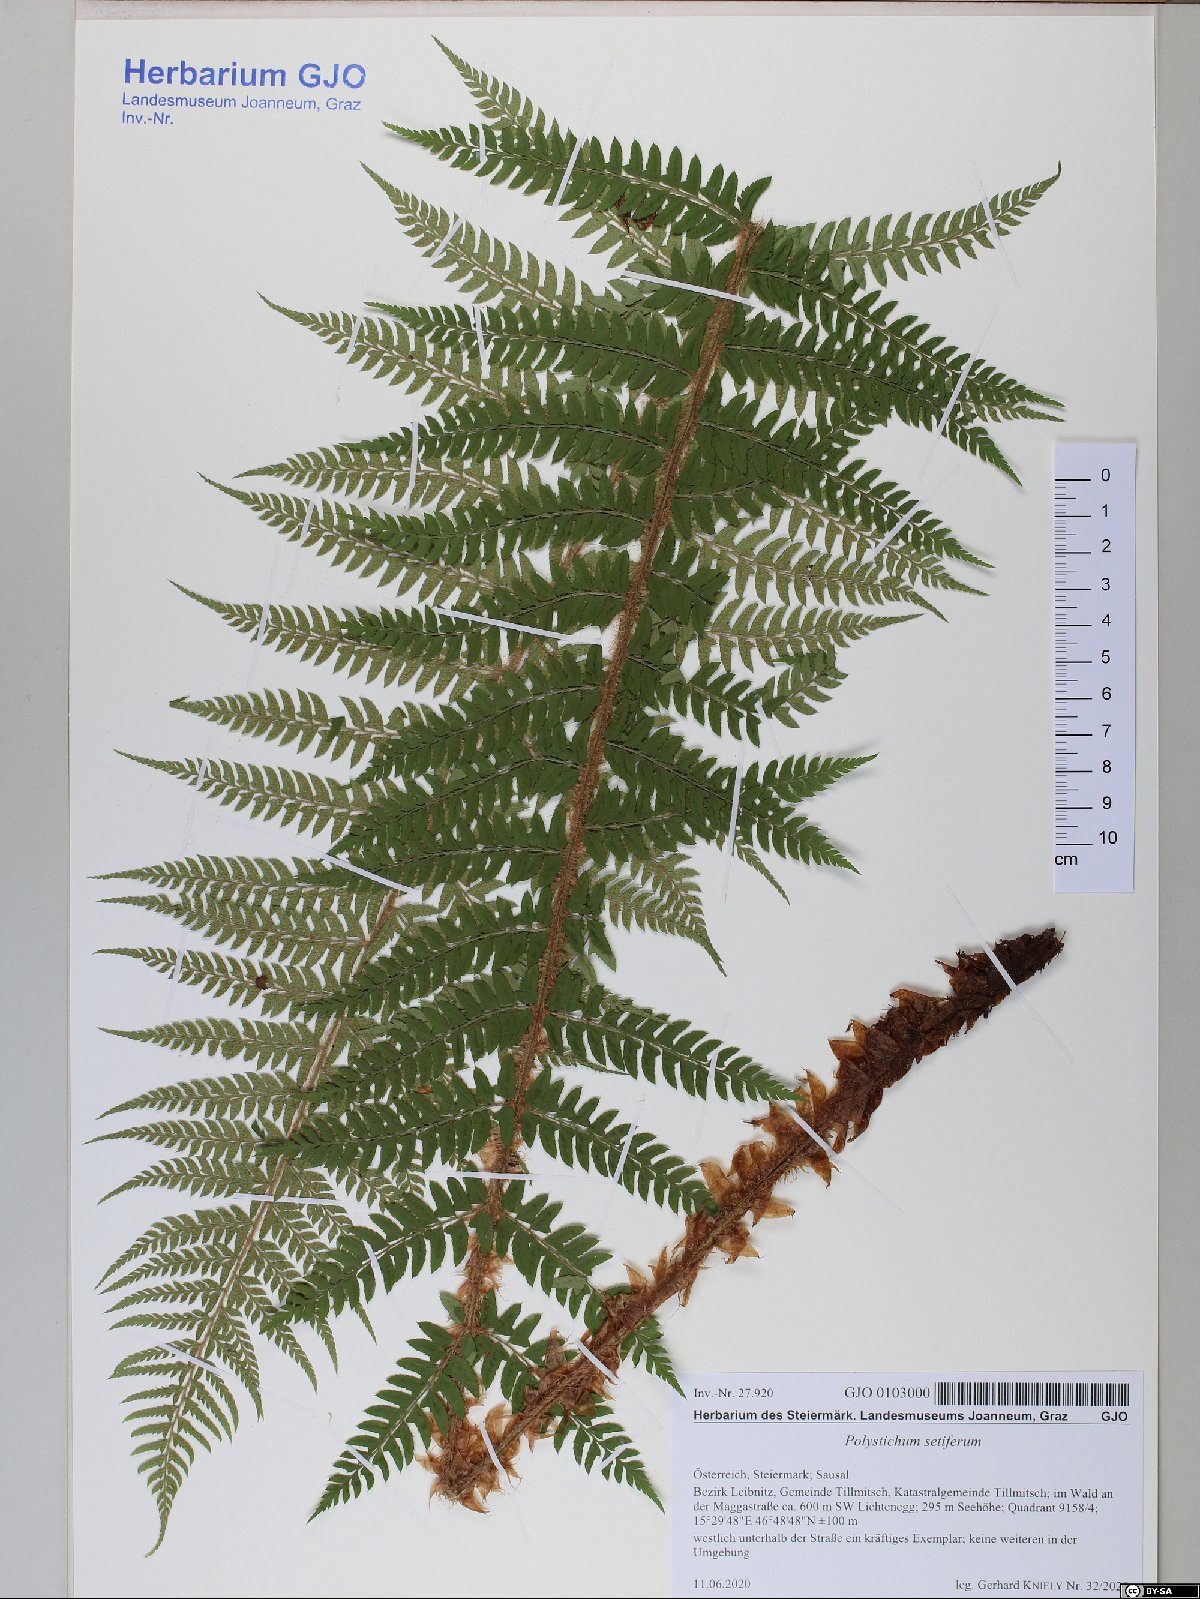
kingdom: Plantae
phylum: Tracheophyta
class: Polypodiopsida
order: Polypodiales
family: Dryopteridaceae
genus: Polystichum
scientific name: Polystichum setiferum
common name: Soft shield-fern
